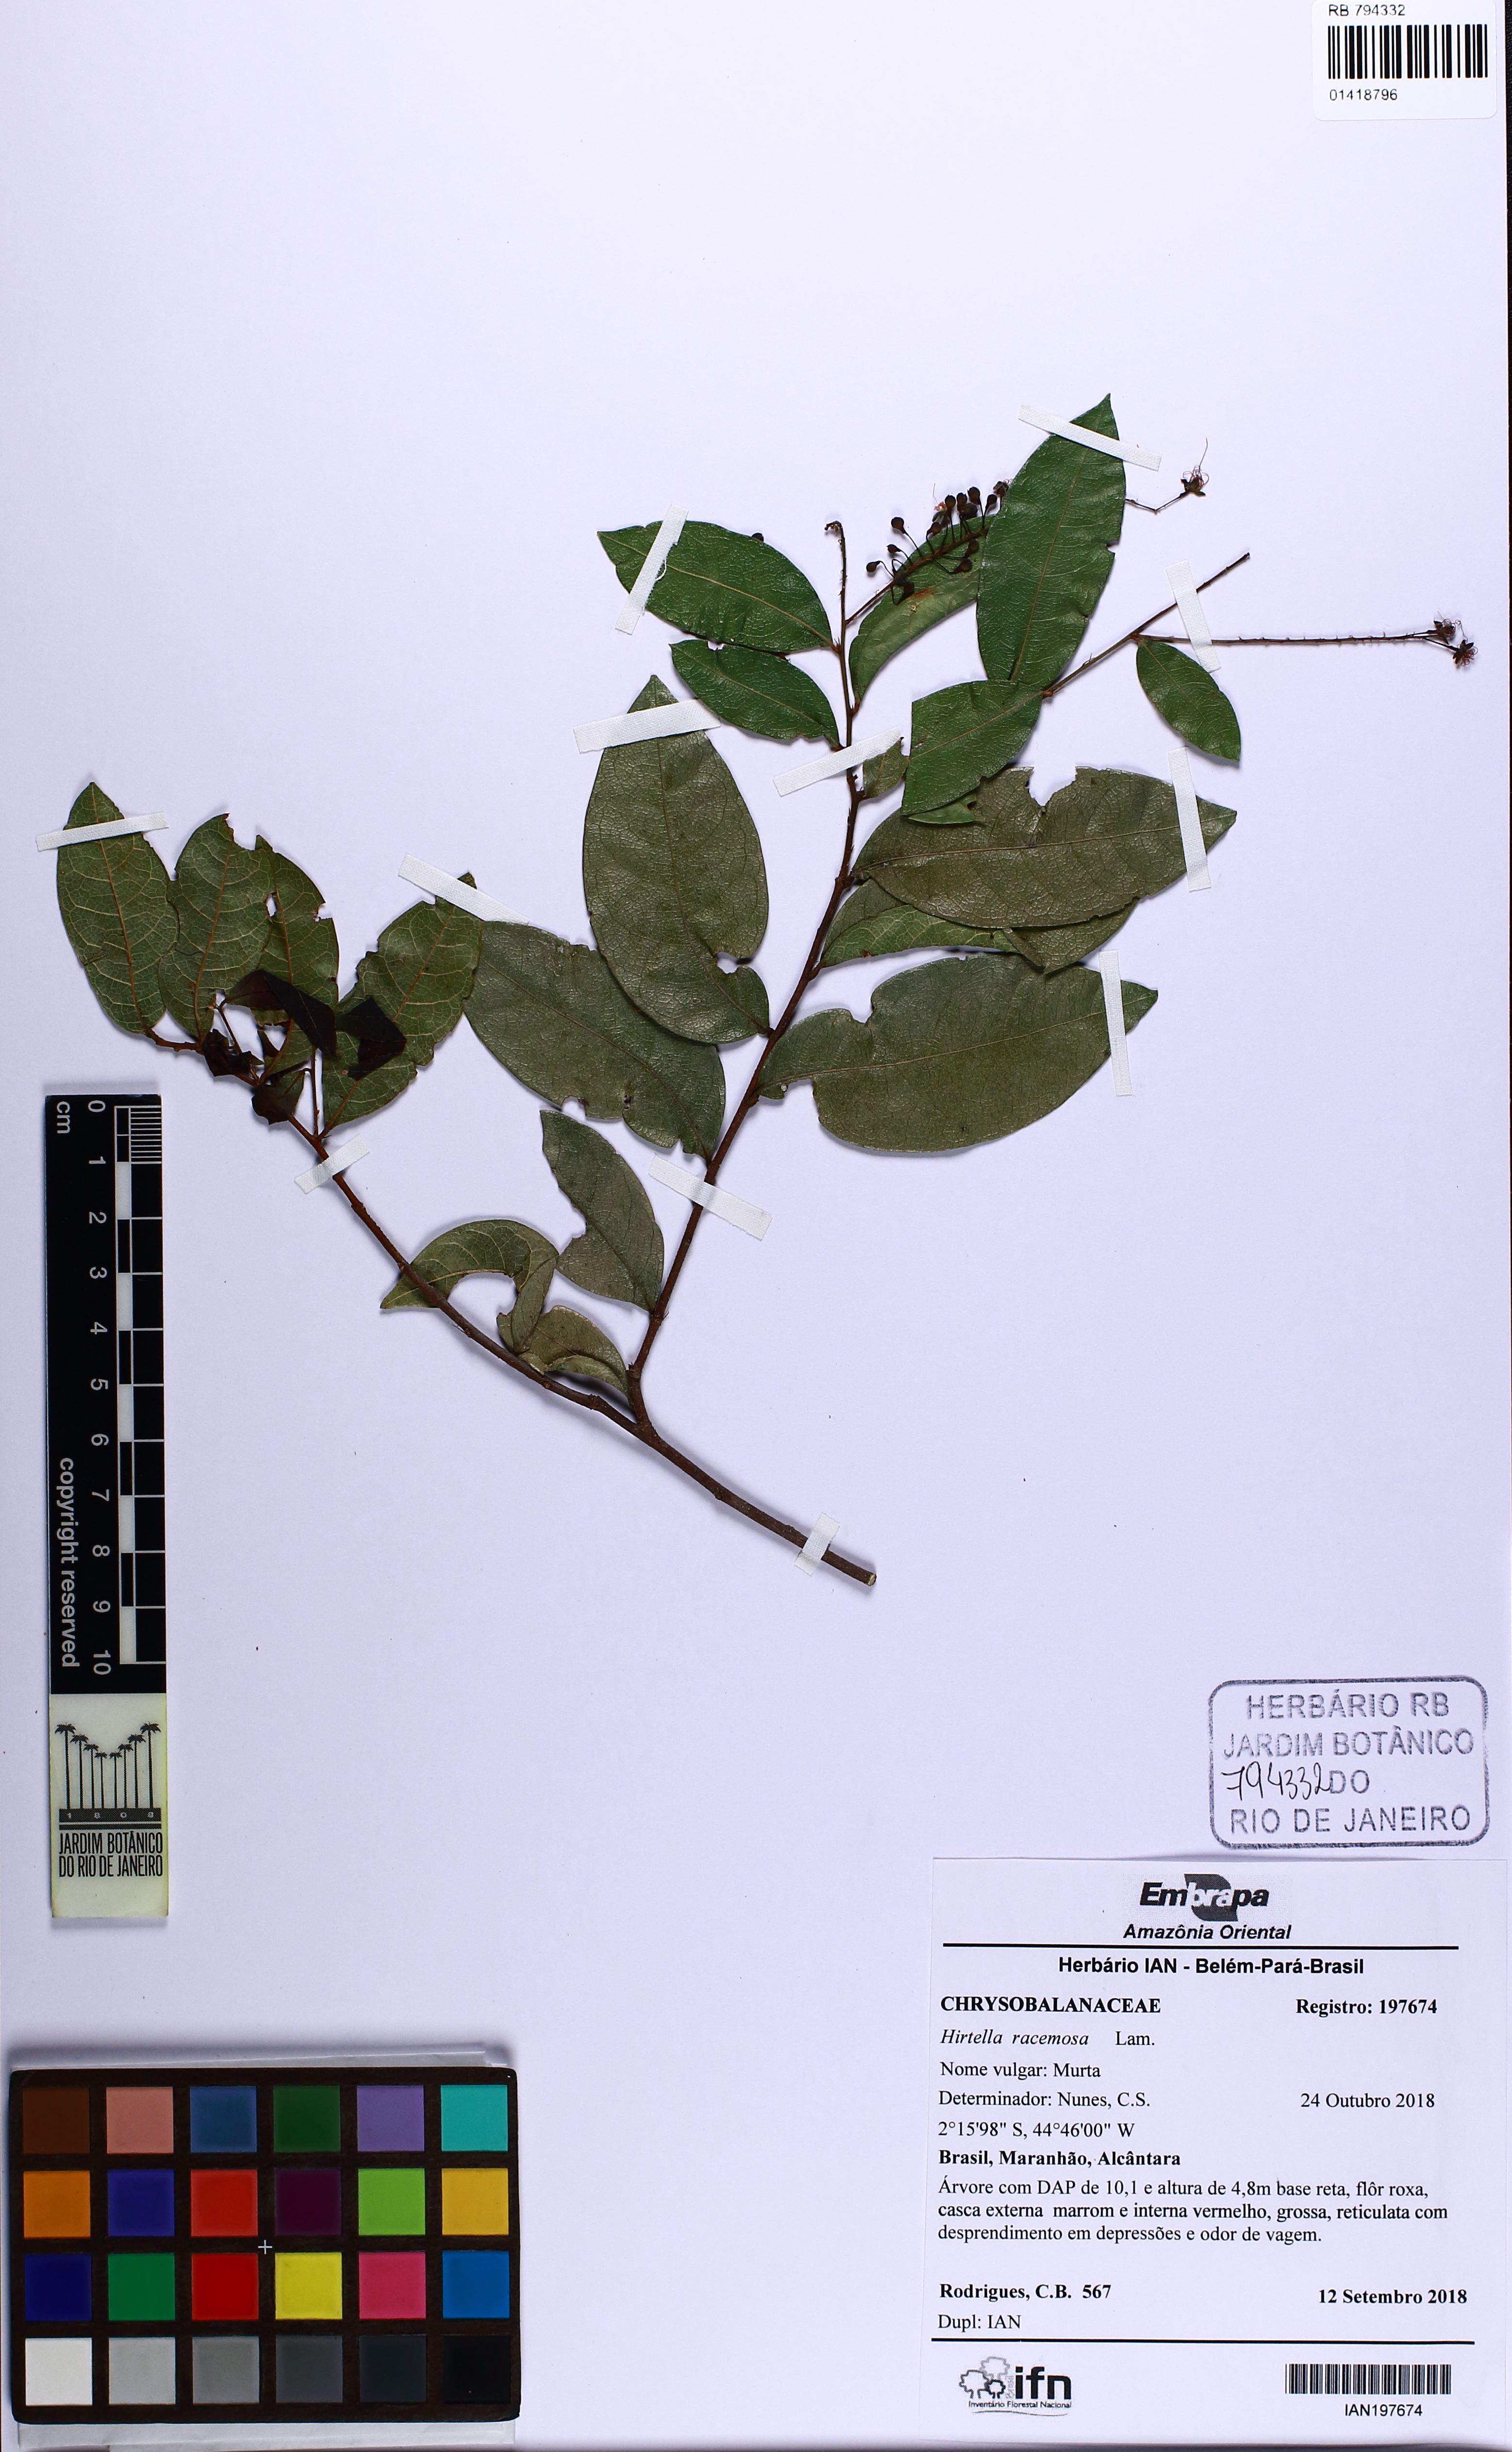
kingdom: Plantae
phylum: Tracheophyta
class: Magnoliopsida
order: Malpighiales
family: Chrysobalanaceae
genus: Hirtella
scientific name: Hirtella racemosa
